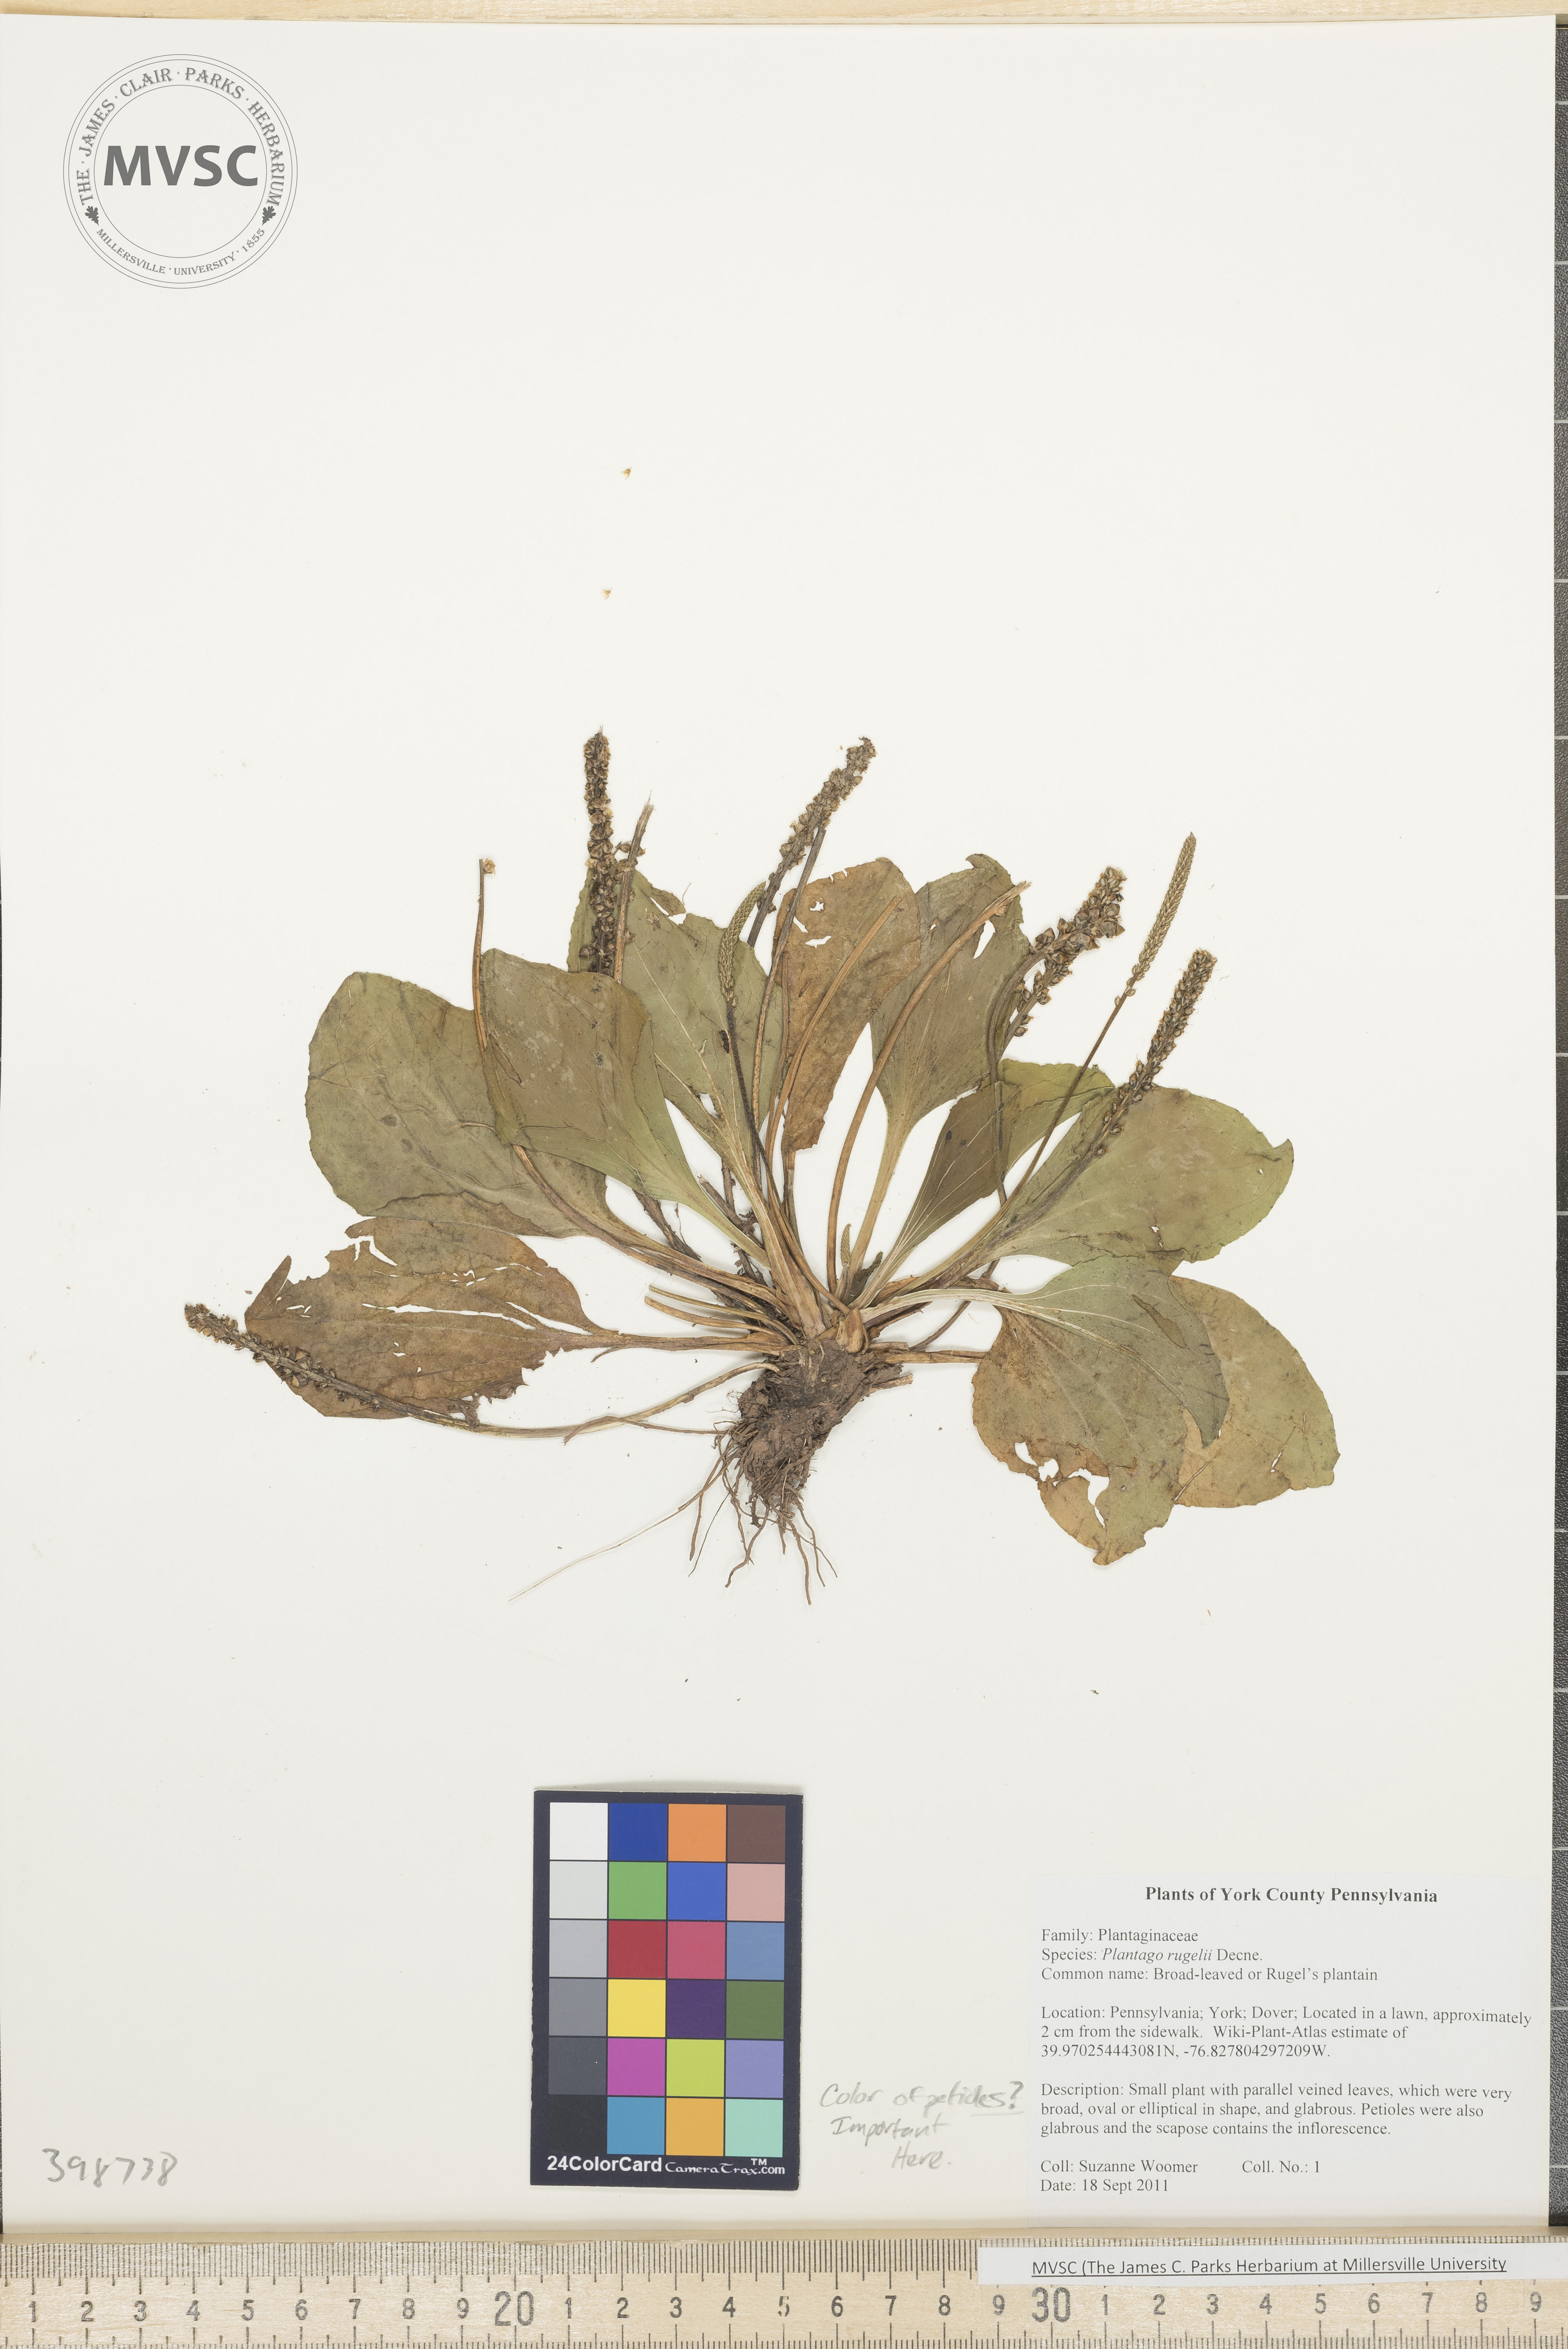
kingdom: Plantae
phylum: Tracheophyta
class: Magnoliopsida
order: Lamiales
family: Plantaginaceae
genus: Plantago
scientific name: Plantago rugelii
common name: Rugel's plantain
